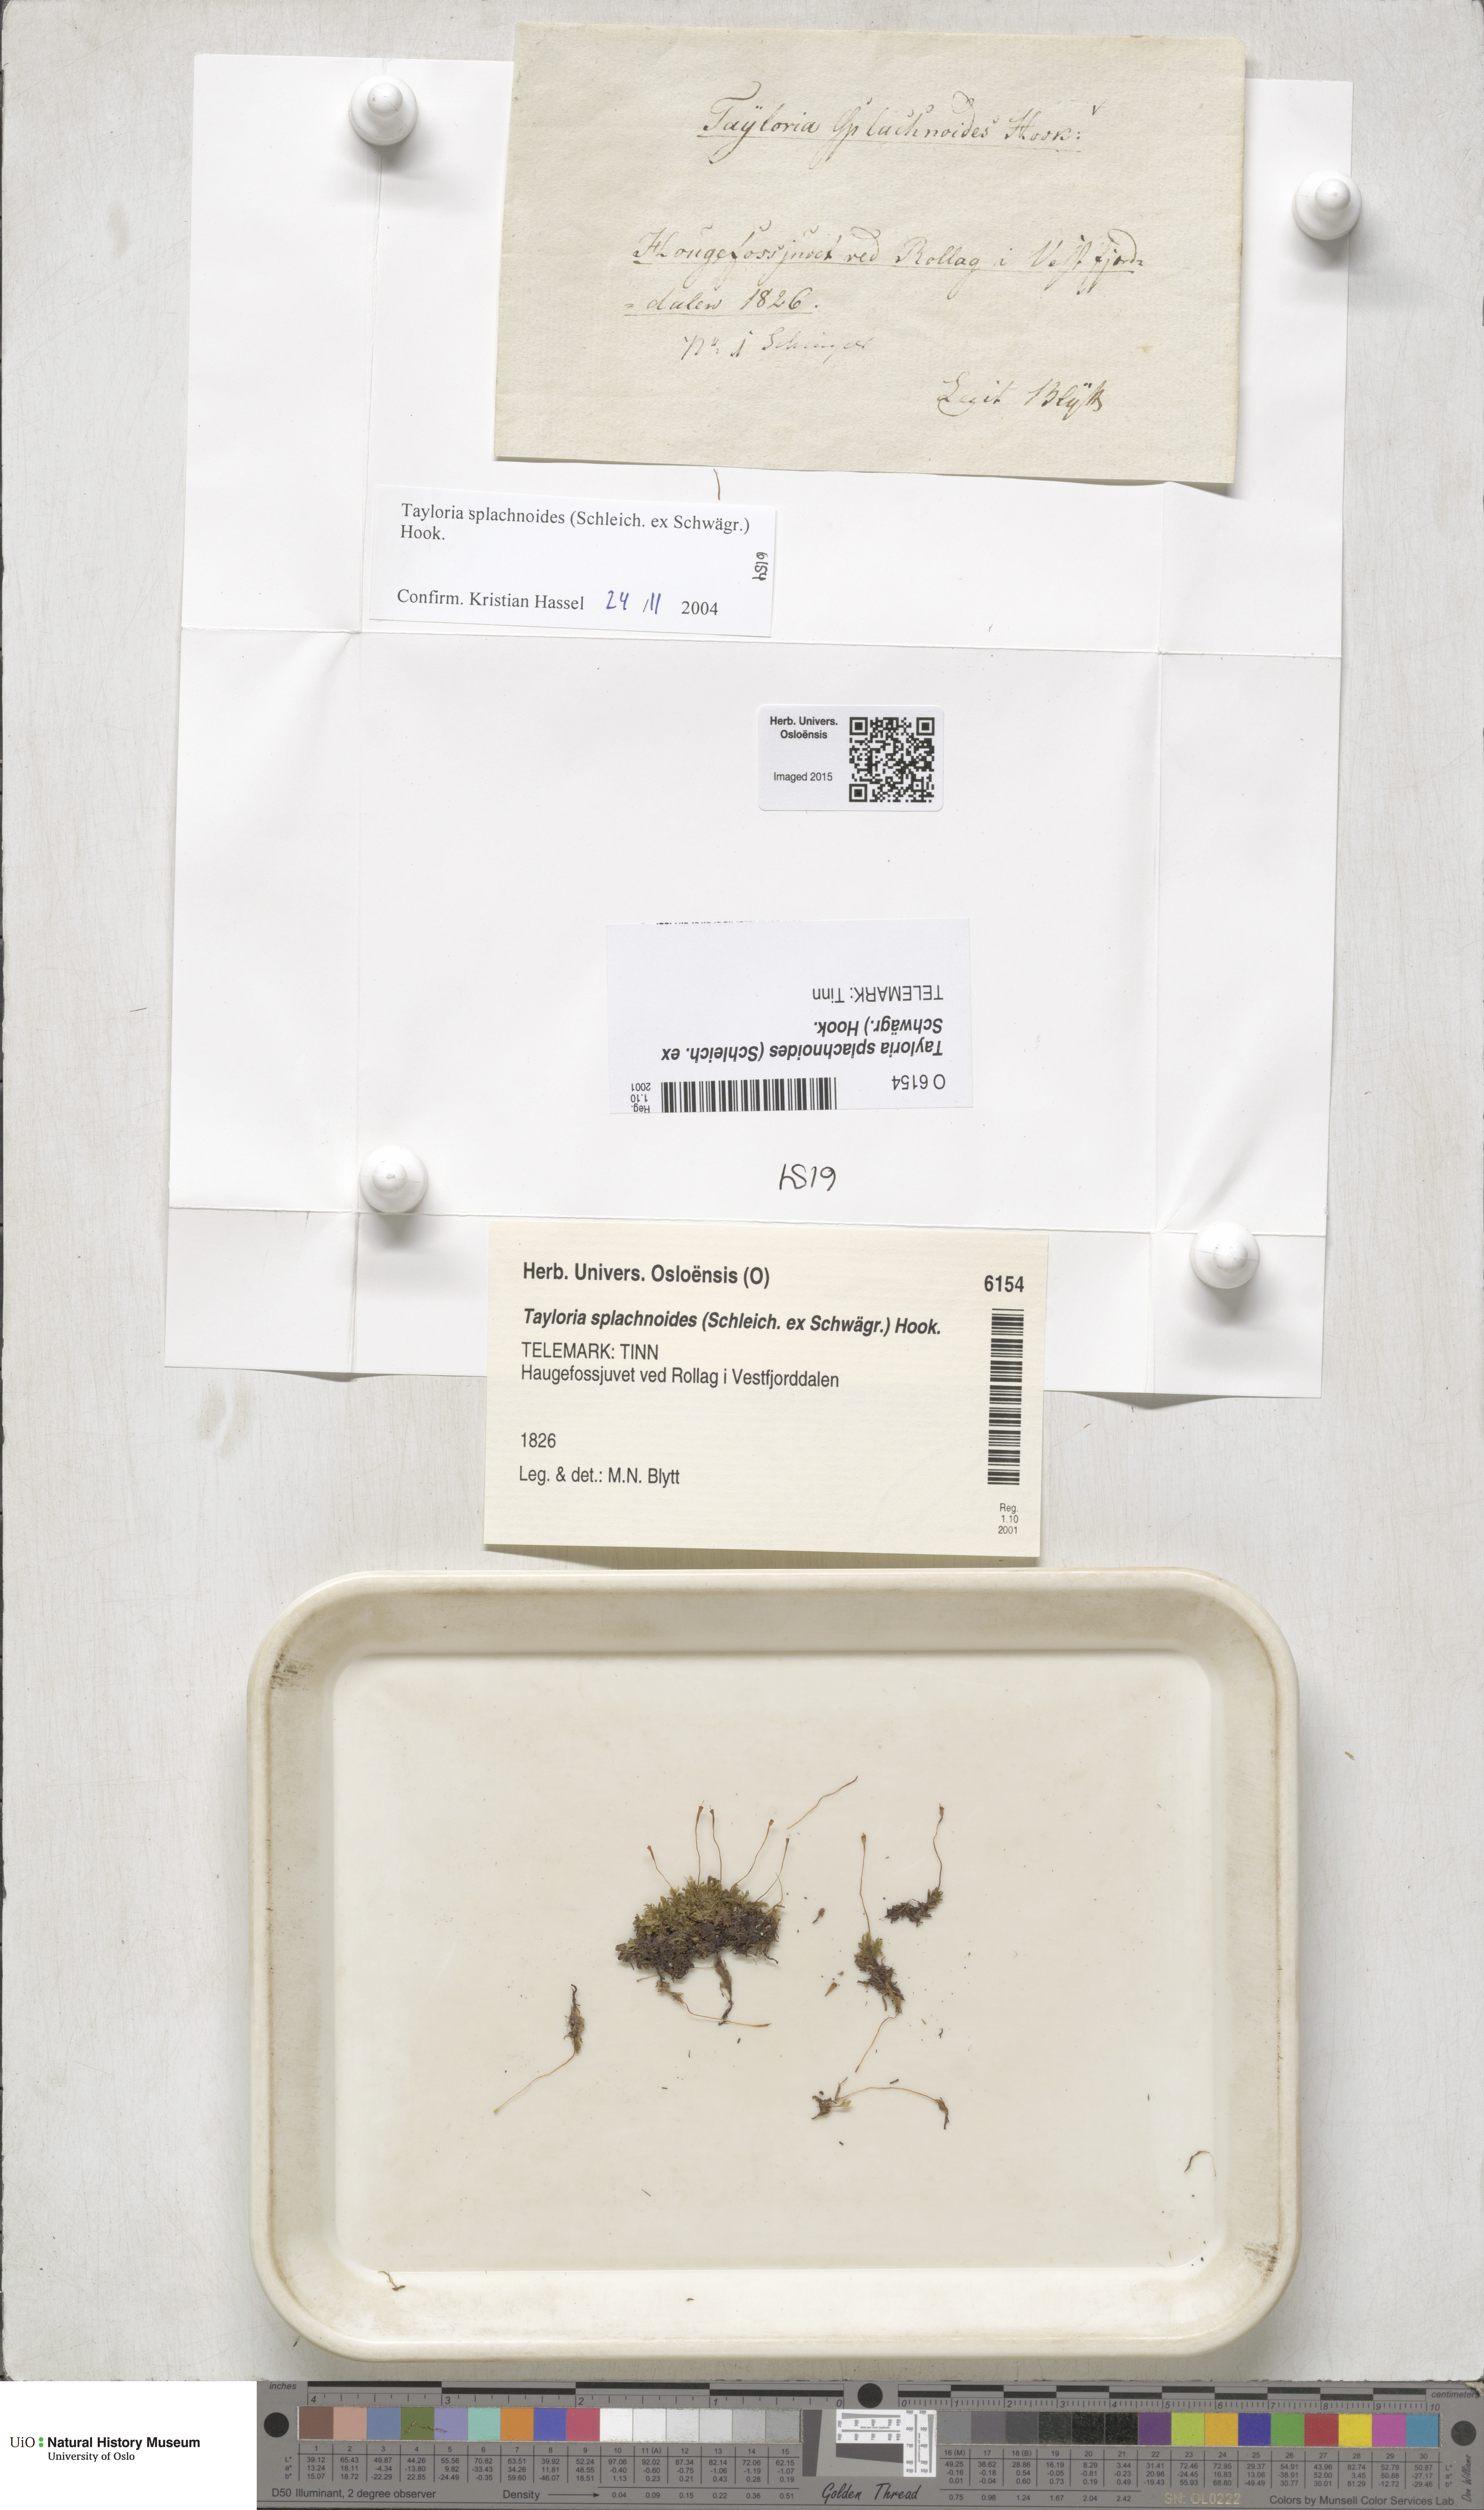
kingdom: Plantae
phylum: Bryophyta
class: Bryopsida
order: Splachnales
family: Splachnaceae
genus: Tayloria
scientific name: Tayloria splachnoides
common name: Splachnoid trumpet moss
